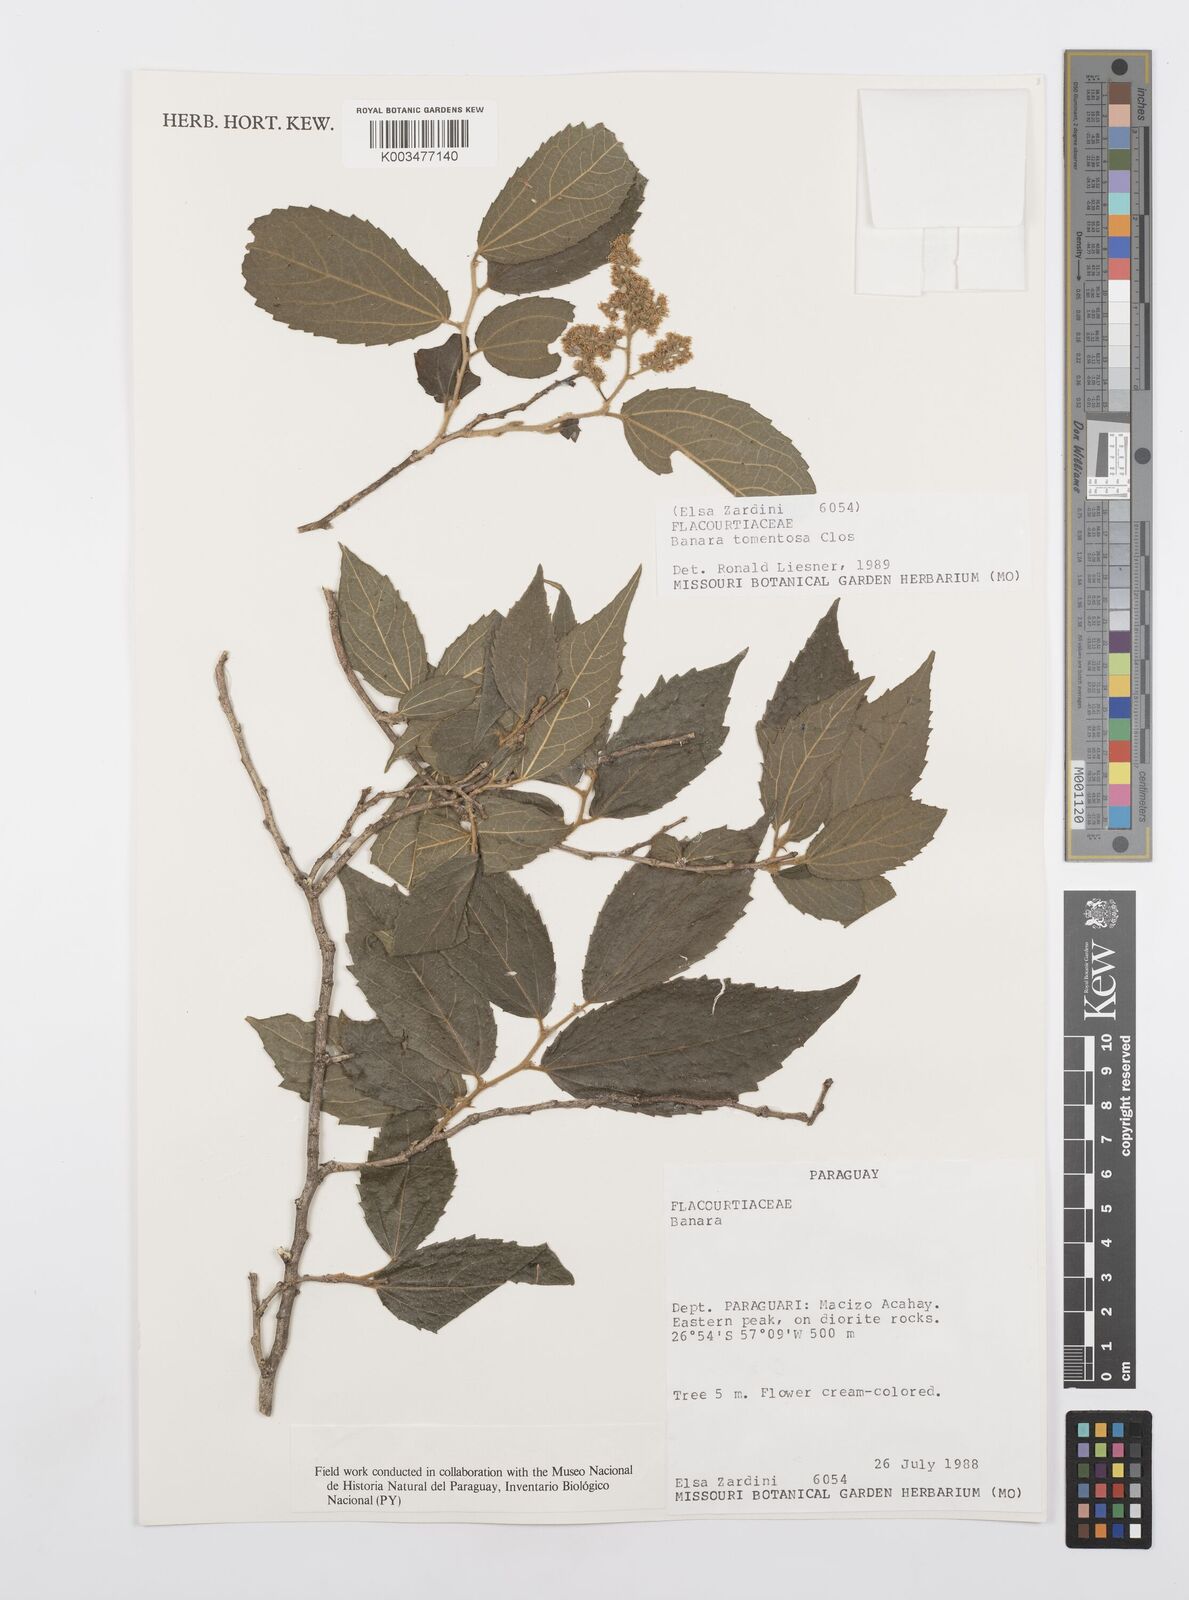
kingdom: Plantae
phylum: Tracheophyta
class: Magnoliopsida
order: Malpighiales
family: Salicaceae
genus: Banara
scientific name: Banara tomentosa
